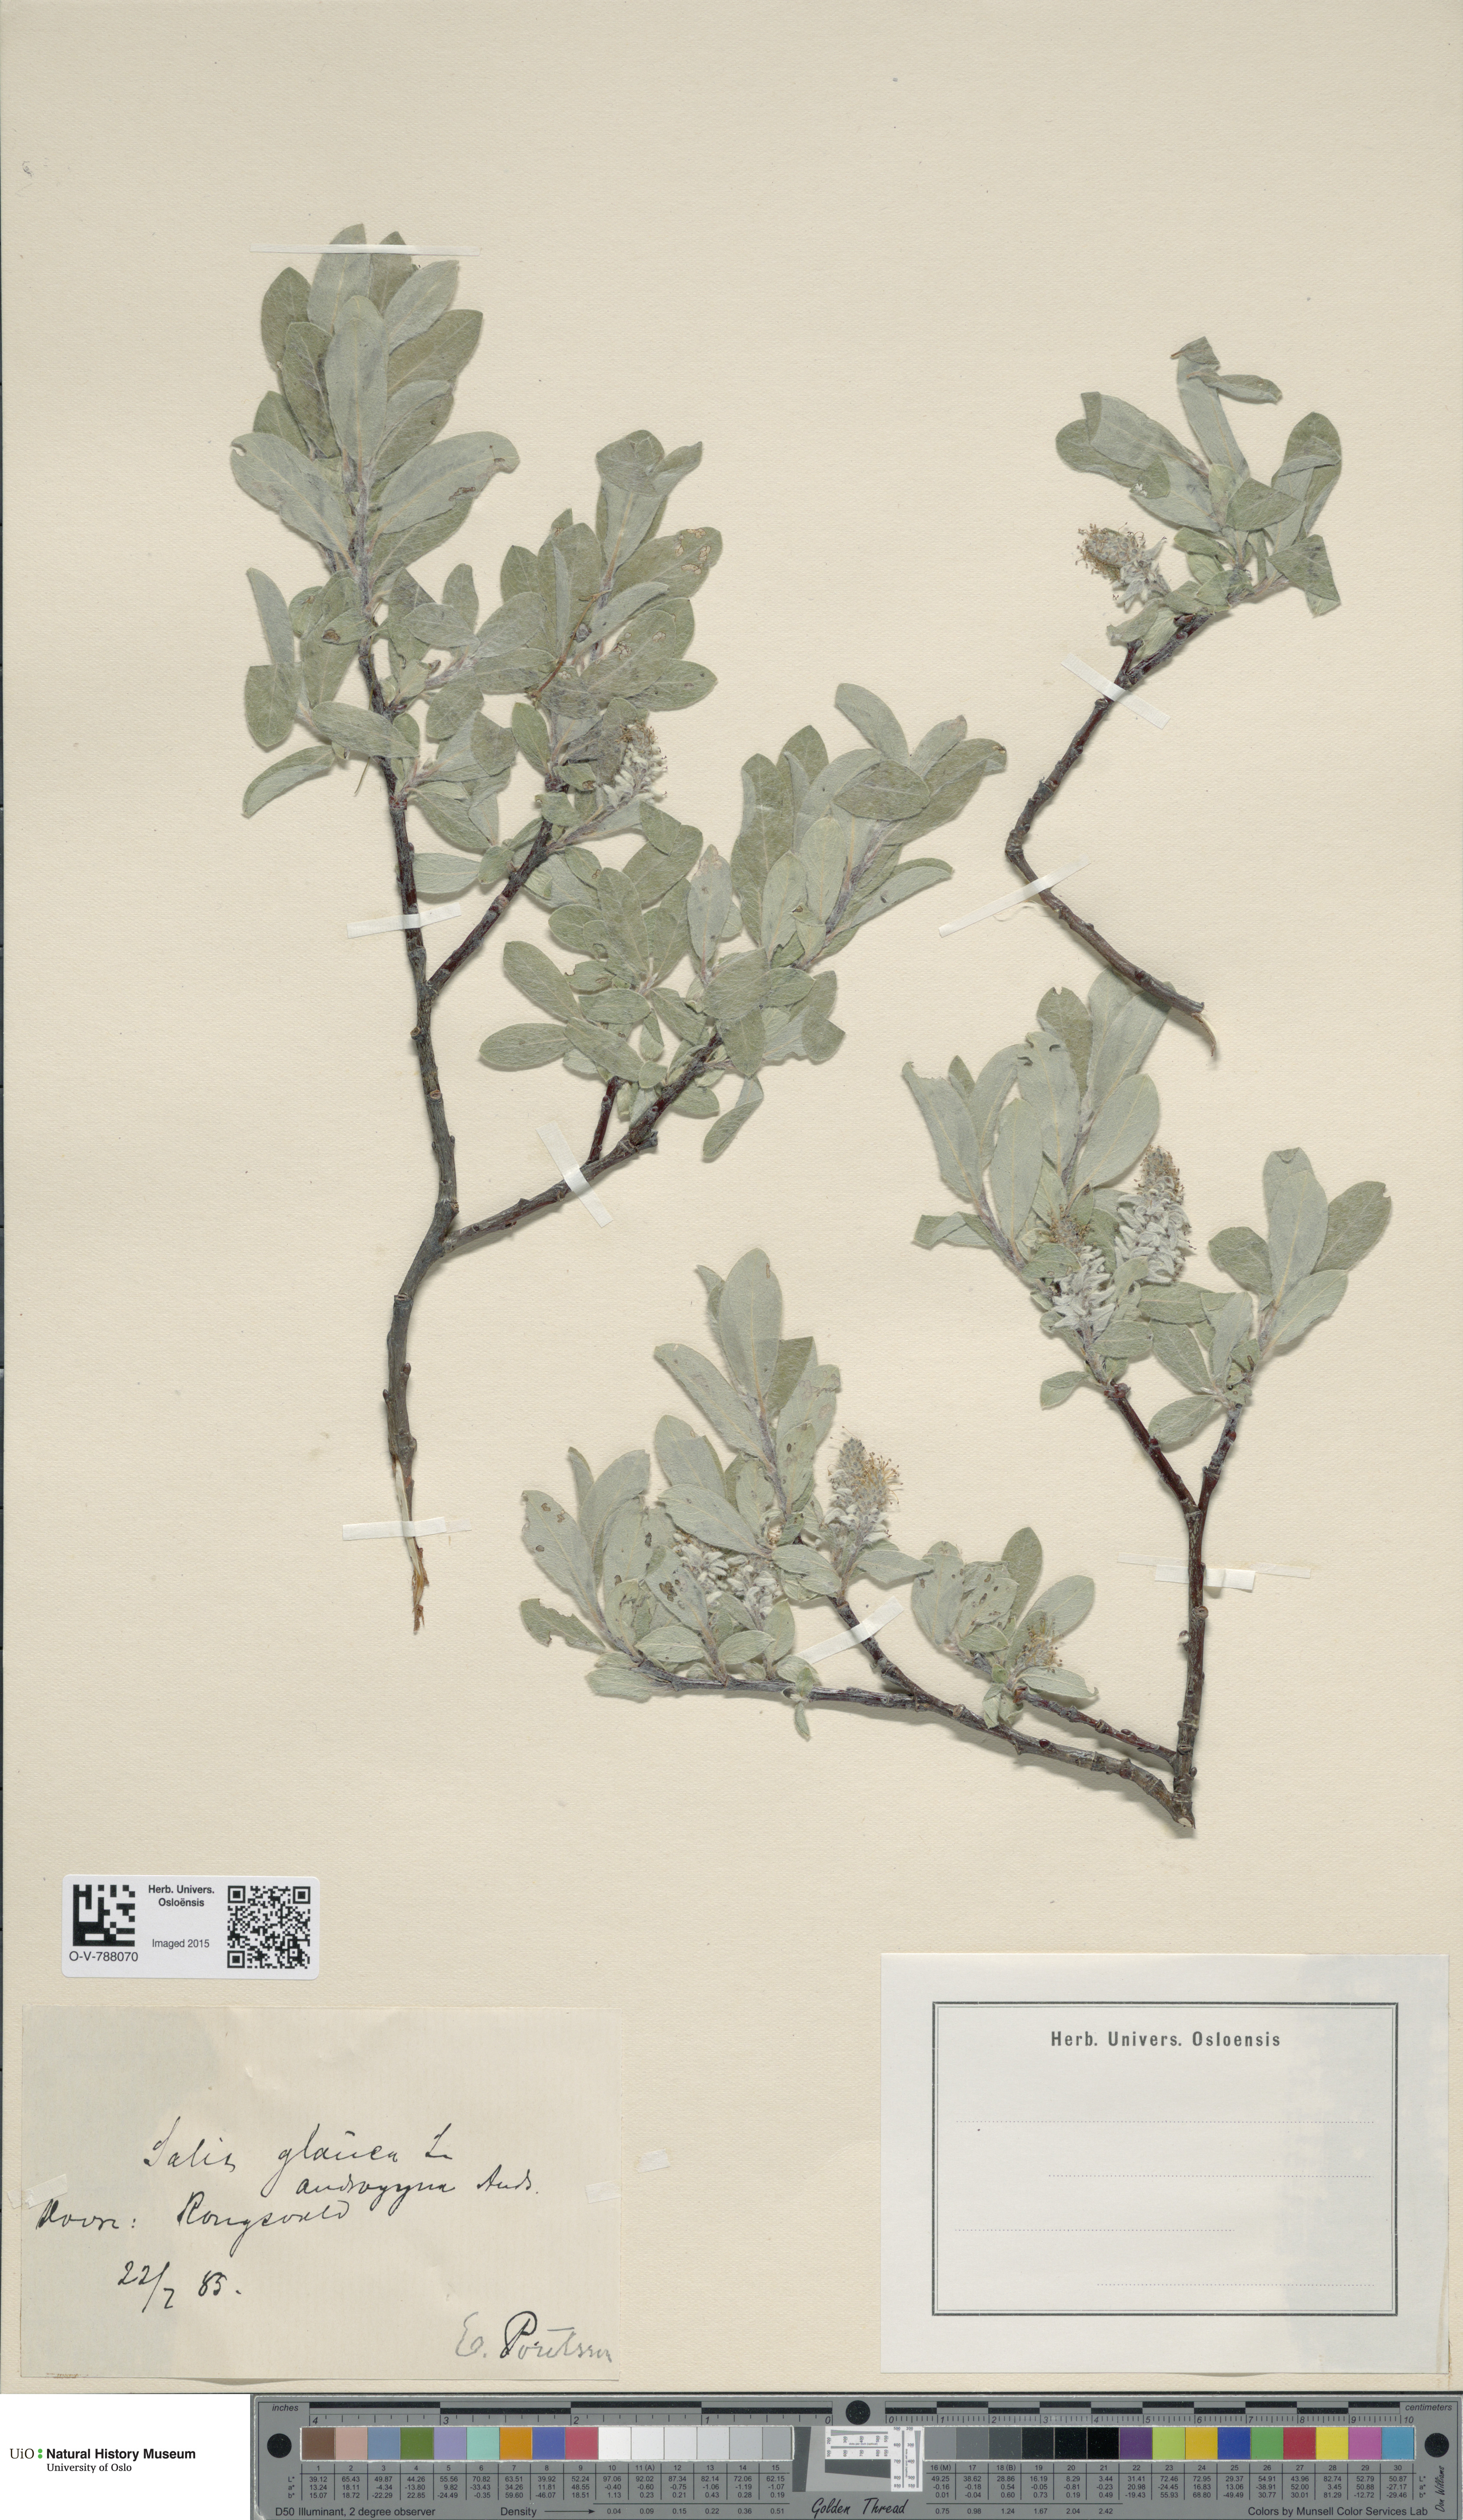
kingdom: Plantae
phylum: Tracheophyta
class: Magnoliopsida
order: Malpighiales
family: Salicaceae
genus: Salix
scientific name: Salix glauca
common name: Glaucous willow
